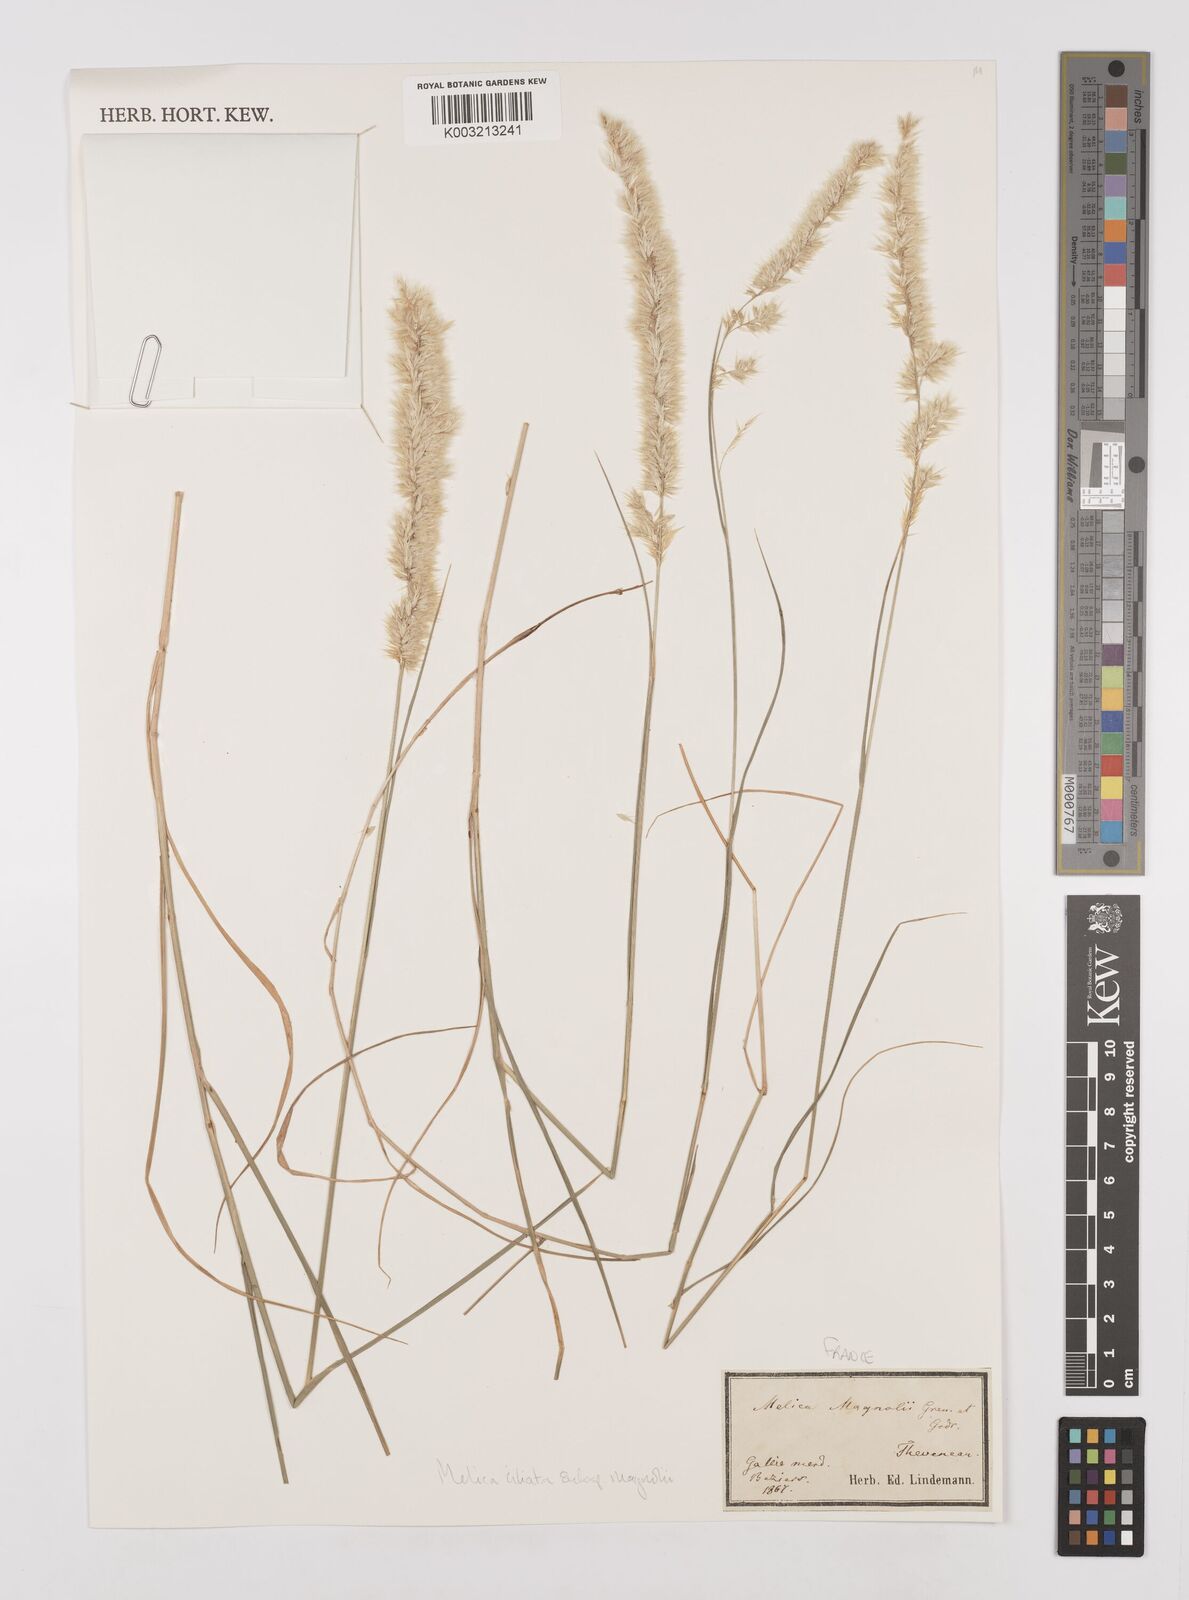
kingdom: Plantae
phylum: Tracheophyta
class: Liliopsida
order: Poales
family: Poaceae
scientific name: Poaceae
